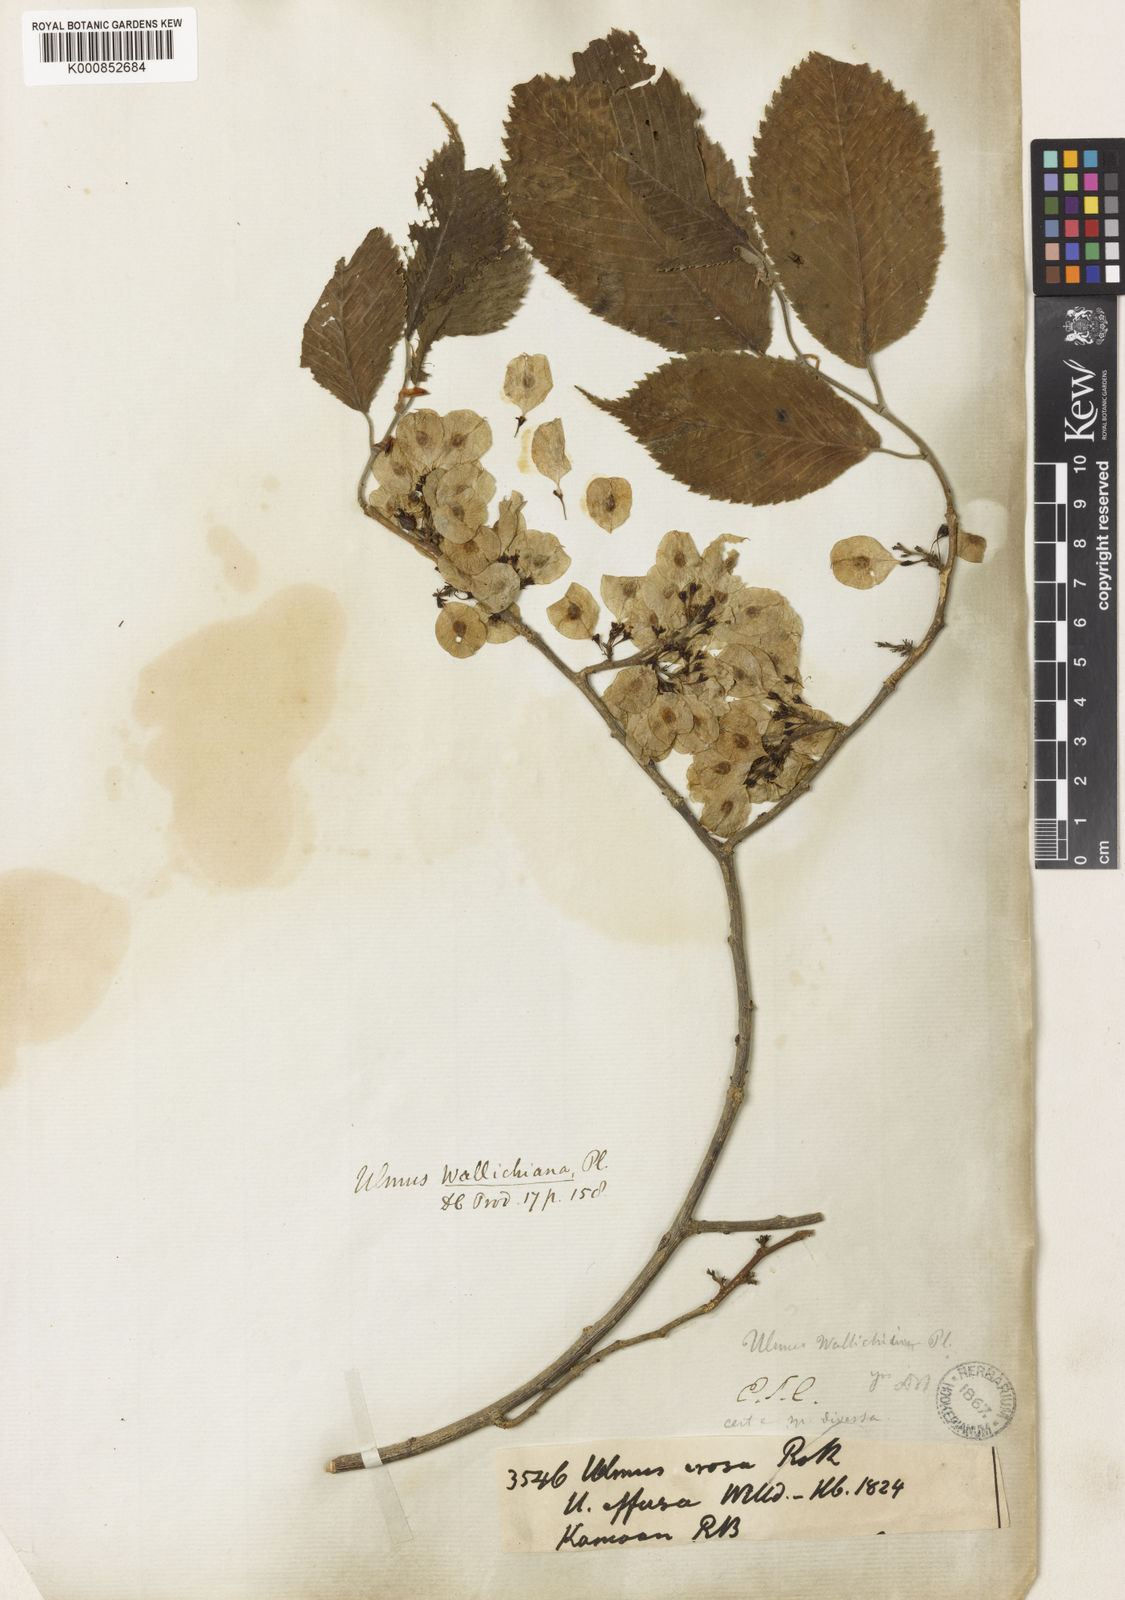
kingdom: Plantae
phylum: Tracheophyta
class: Magnoliopsida
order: Rosales
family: Ulmaceae
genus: Ulmus
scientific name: Ulmus wallichiana
